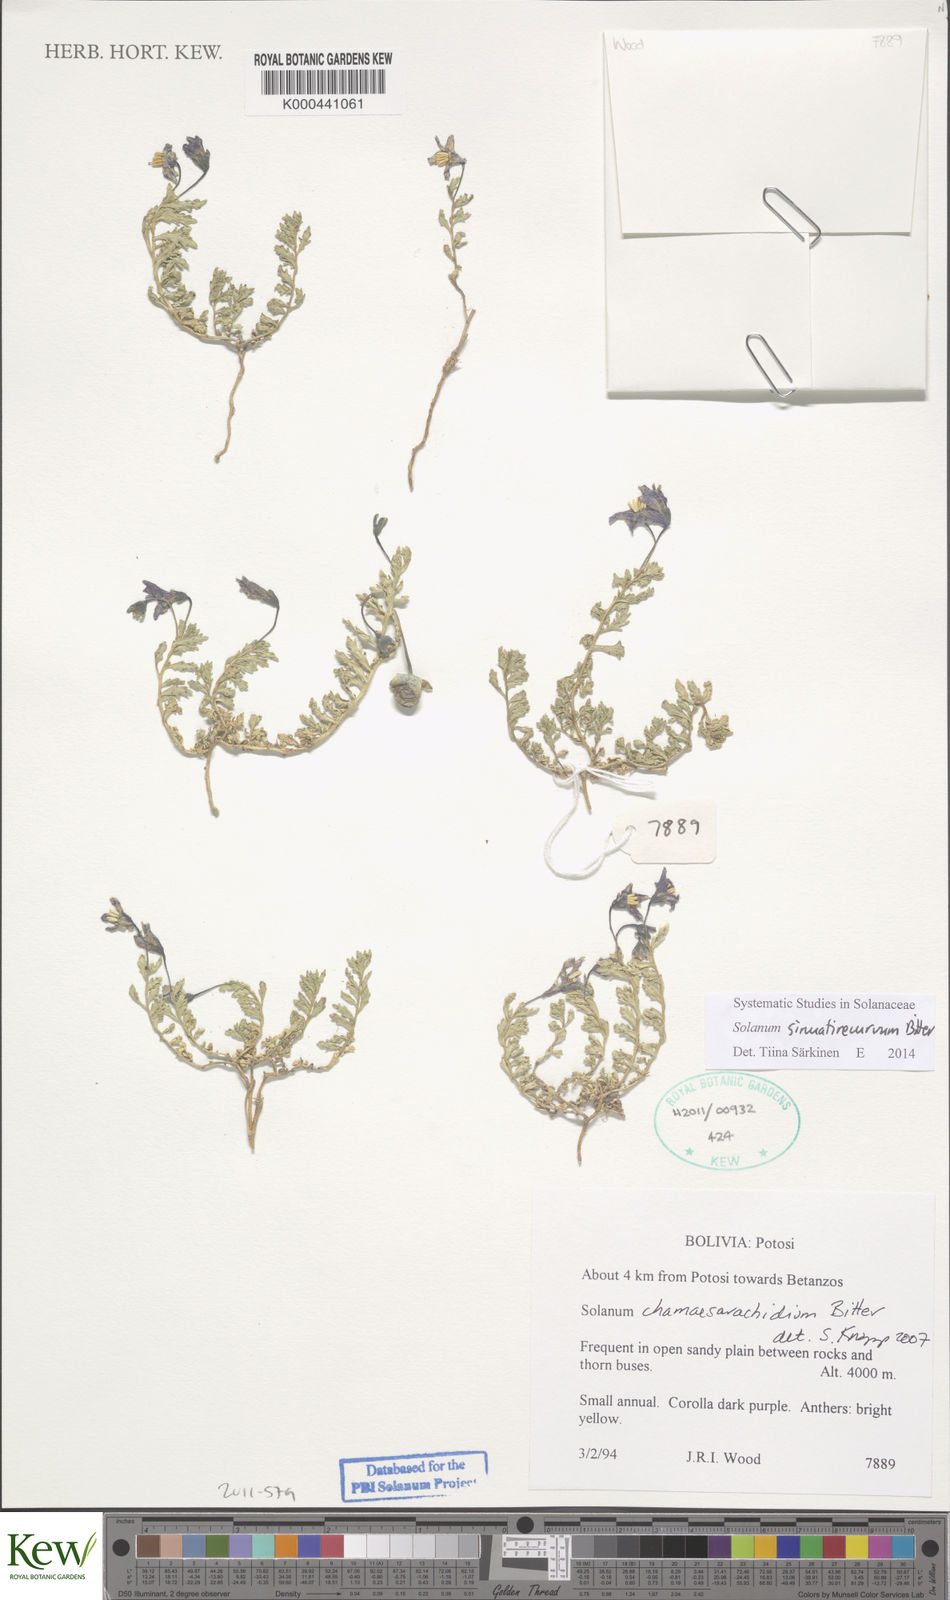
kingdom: Plantae
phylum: Tracheophyta
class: Magnoliopsida
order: Solanales
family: Solanaceae
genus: Solanum
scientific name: Solanum sinuatirecurvum
